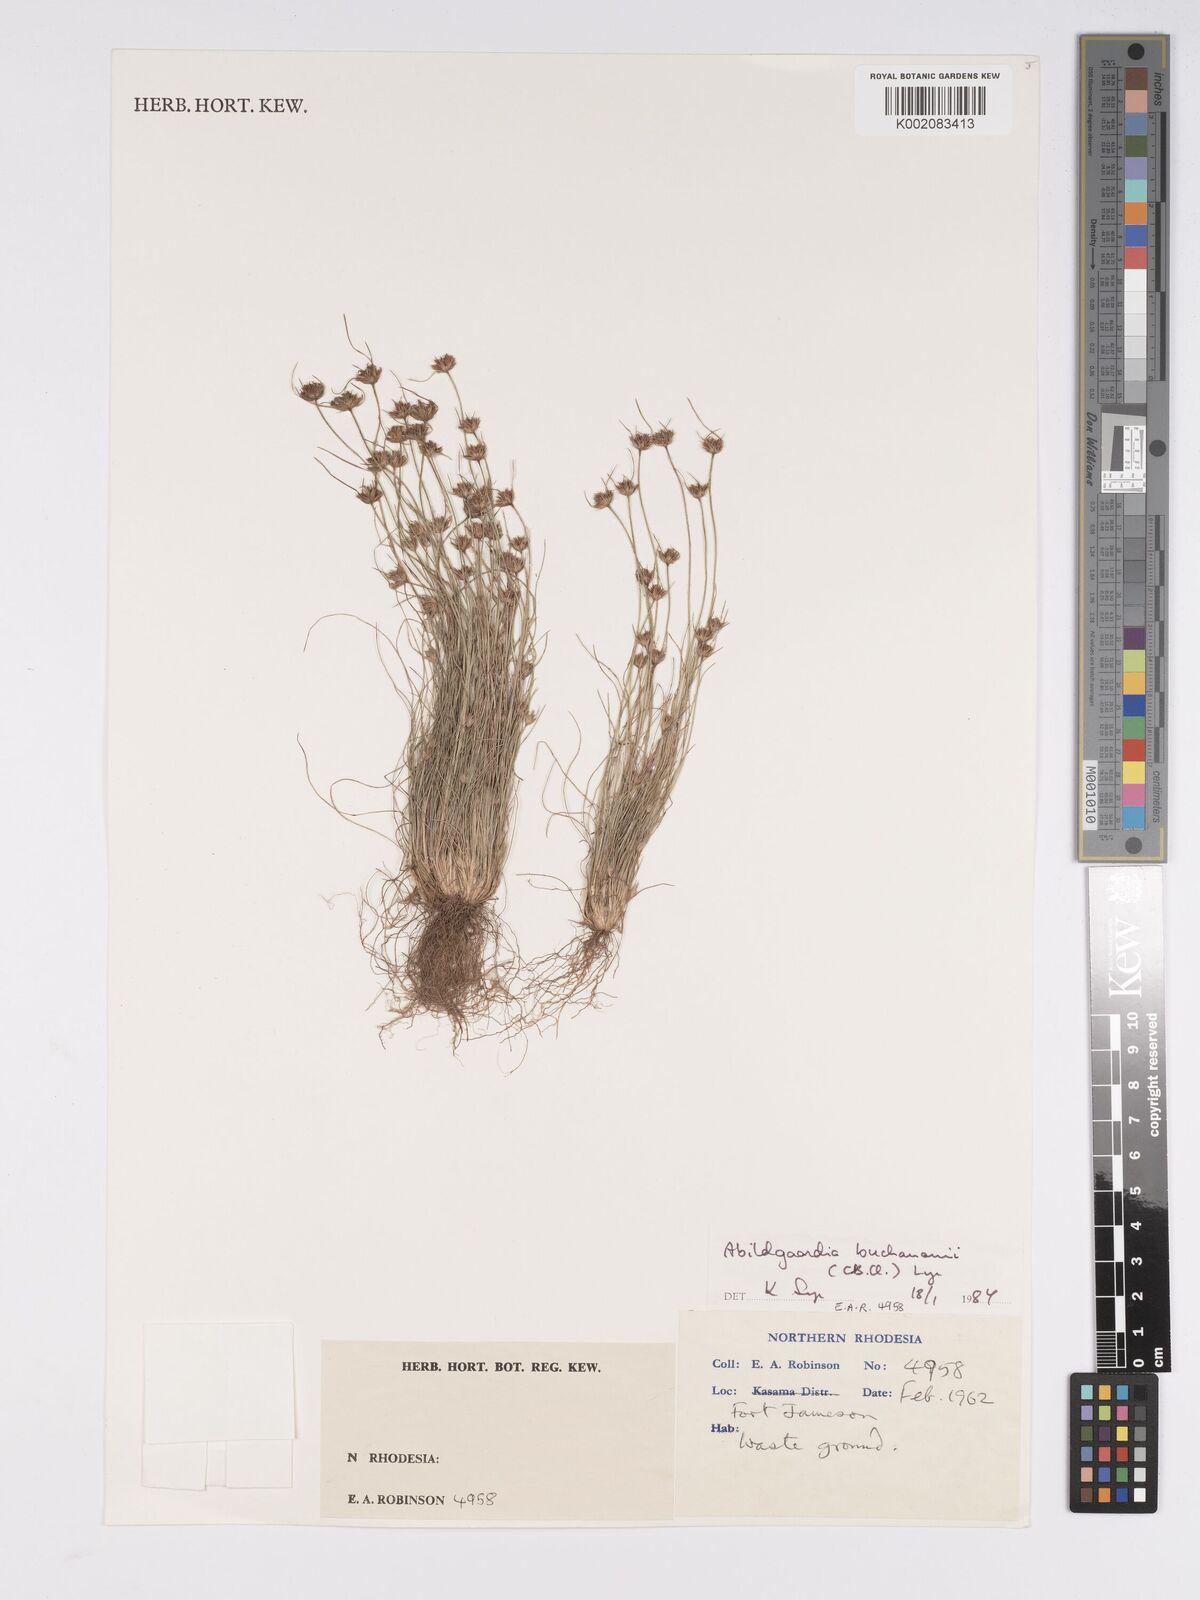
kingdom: Plantae
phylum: Tracheophyta
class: Liliopsida
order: Poales
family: Cyperaceae
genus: Bulbostylis
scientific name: Bulbostylis buchananii
